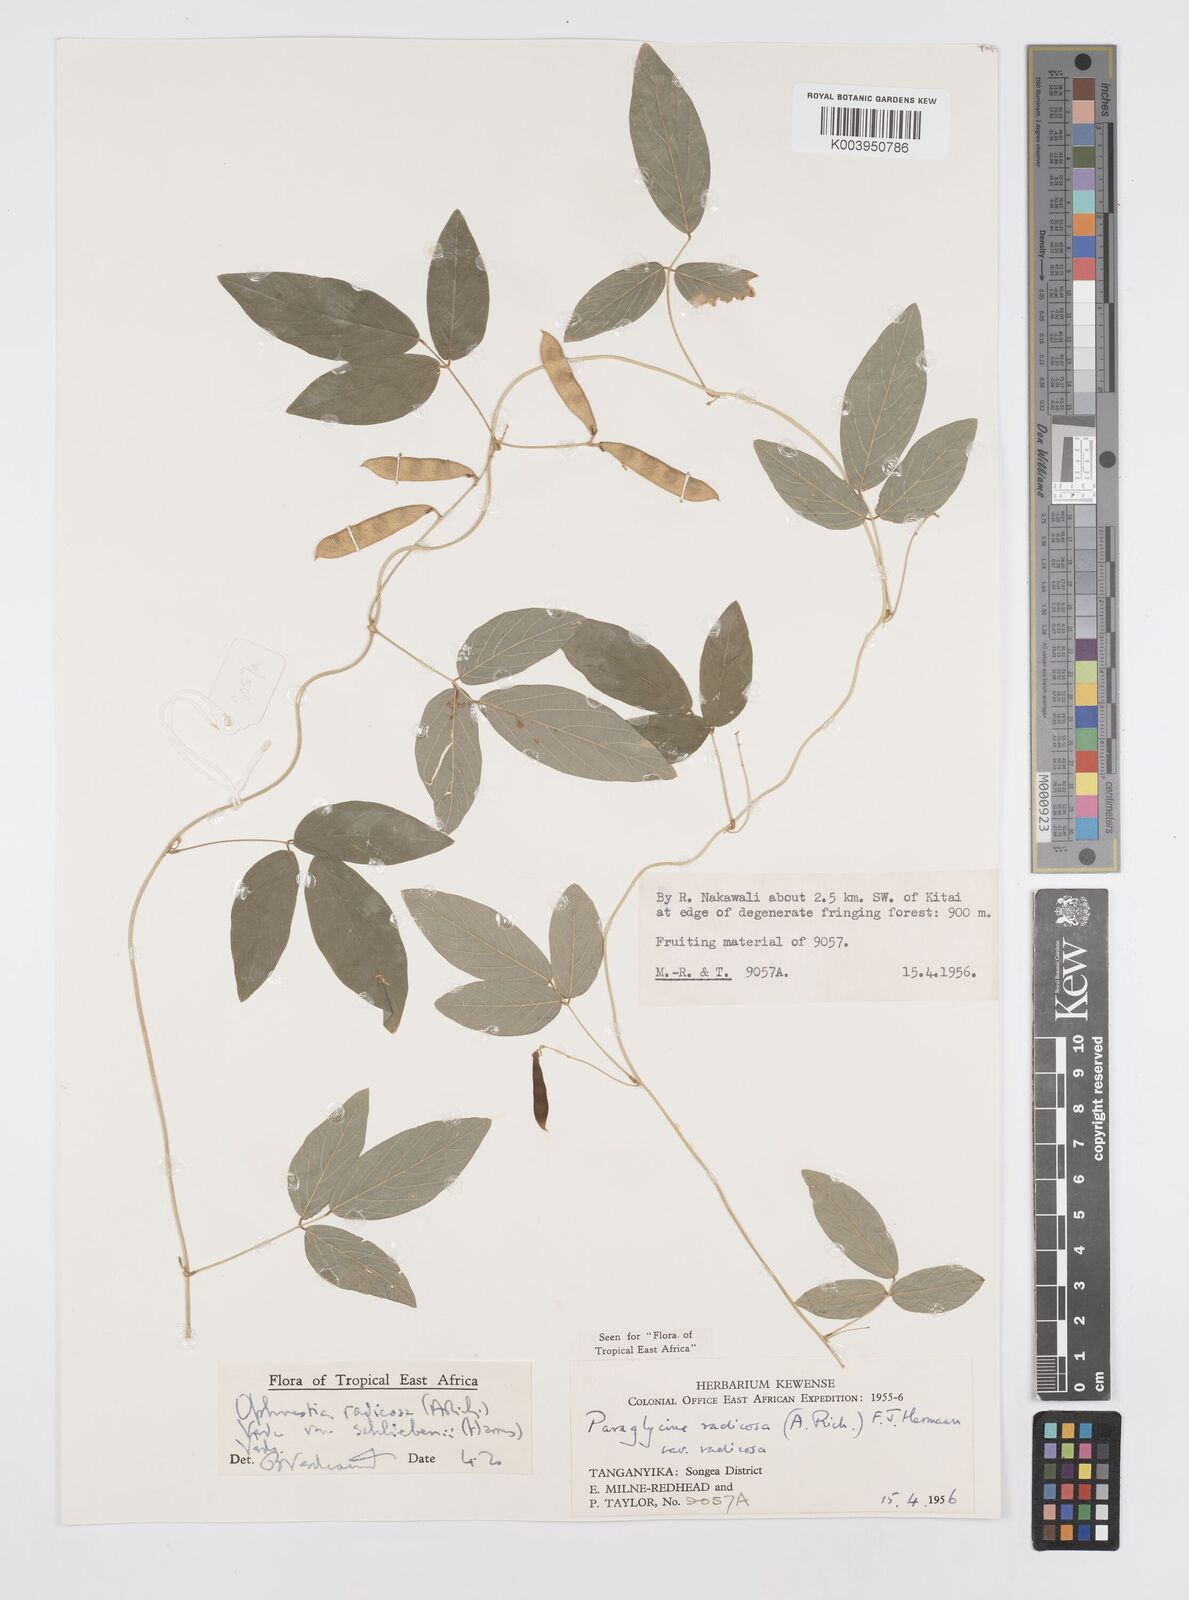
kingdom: Plantae
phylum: Tracheophyta
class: Magnoliopsida
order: Fabales
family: Fabaceae
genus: Ophrestia
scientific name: Ophrestia radicosa
